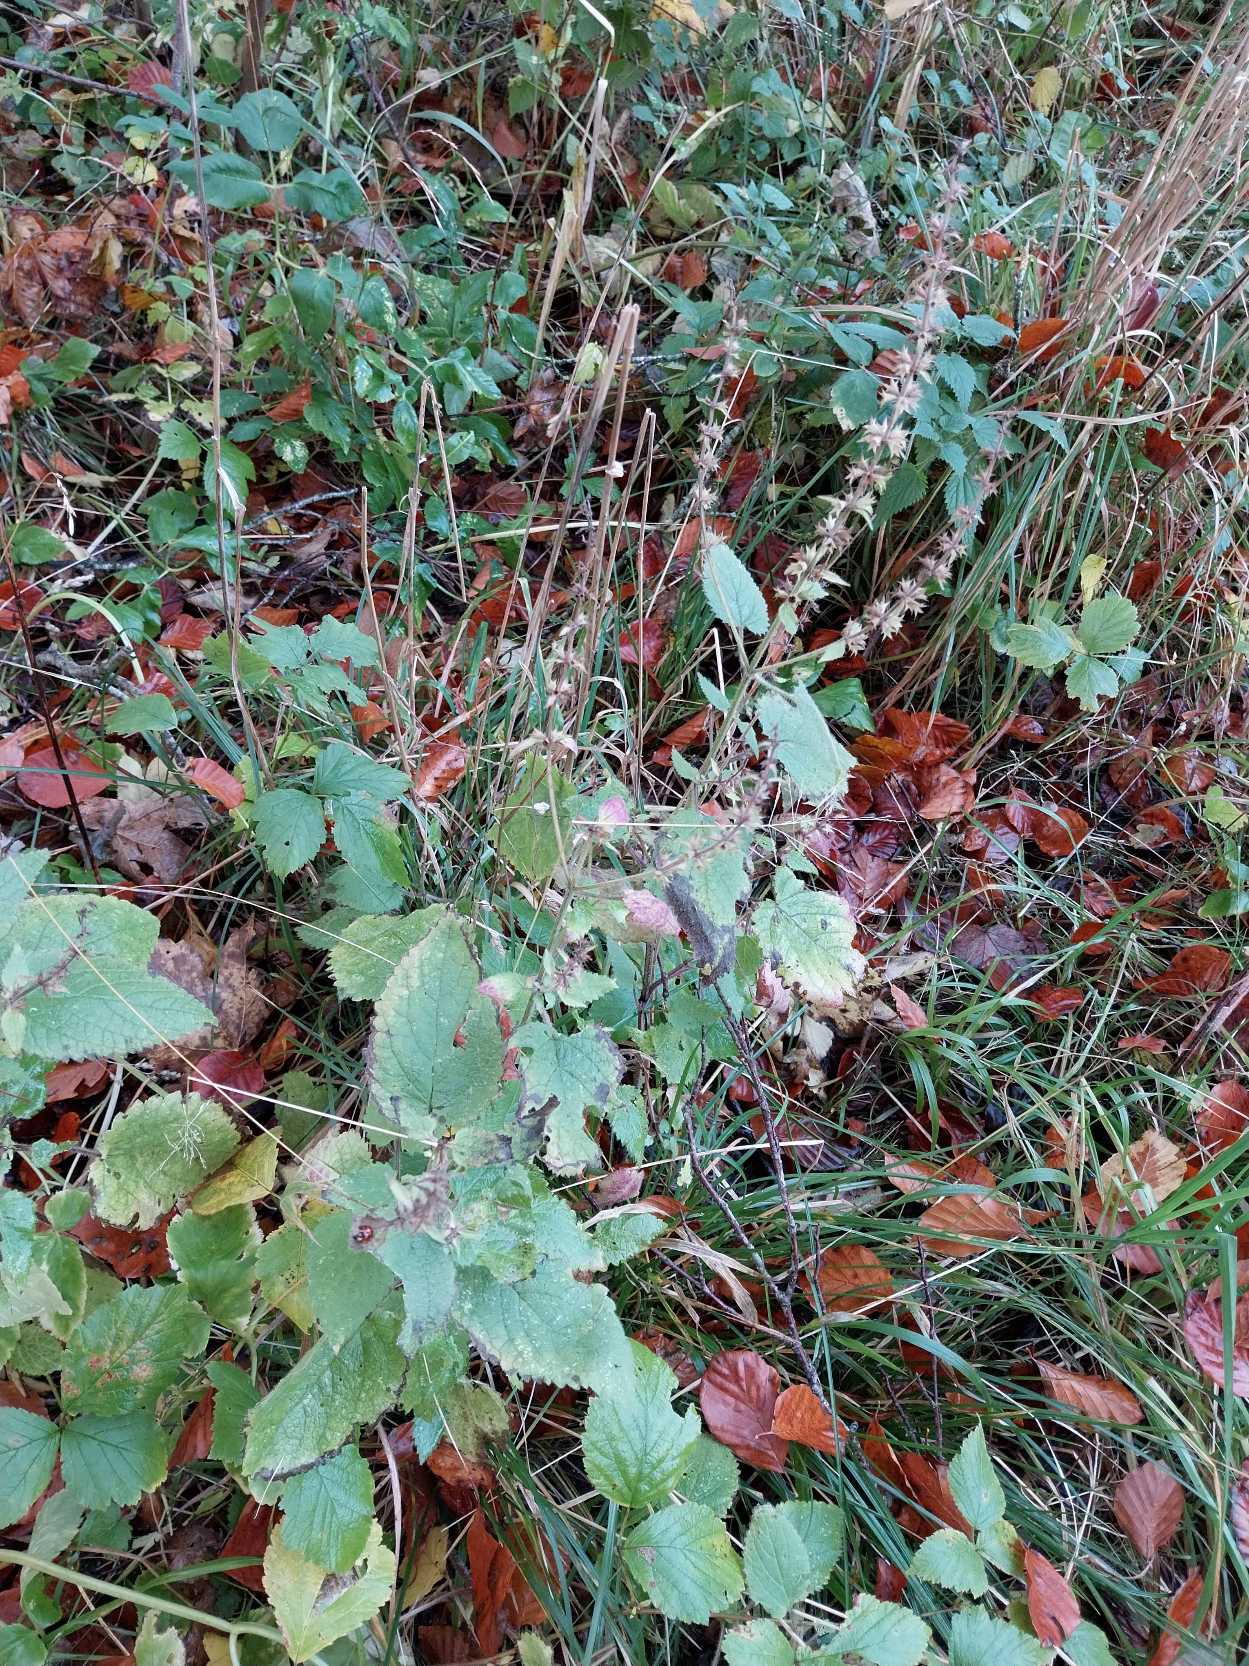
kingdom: Plantae
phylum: Tracheophyta
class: Magnoliopsida
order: Lamiales
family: Lamiaceae
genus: Stachys
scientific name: Stachys sylvatica
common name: Skov-galtetand
